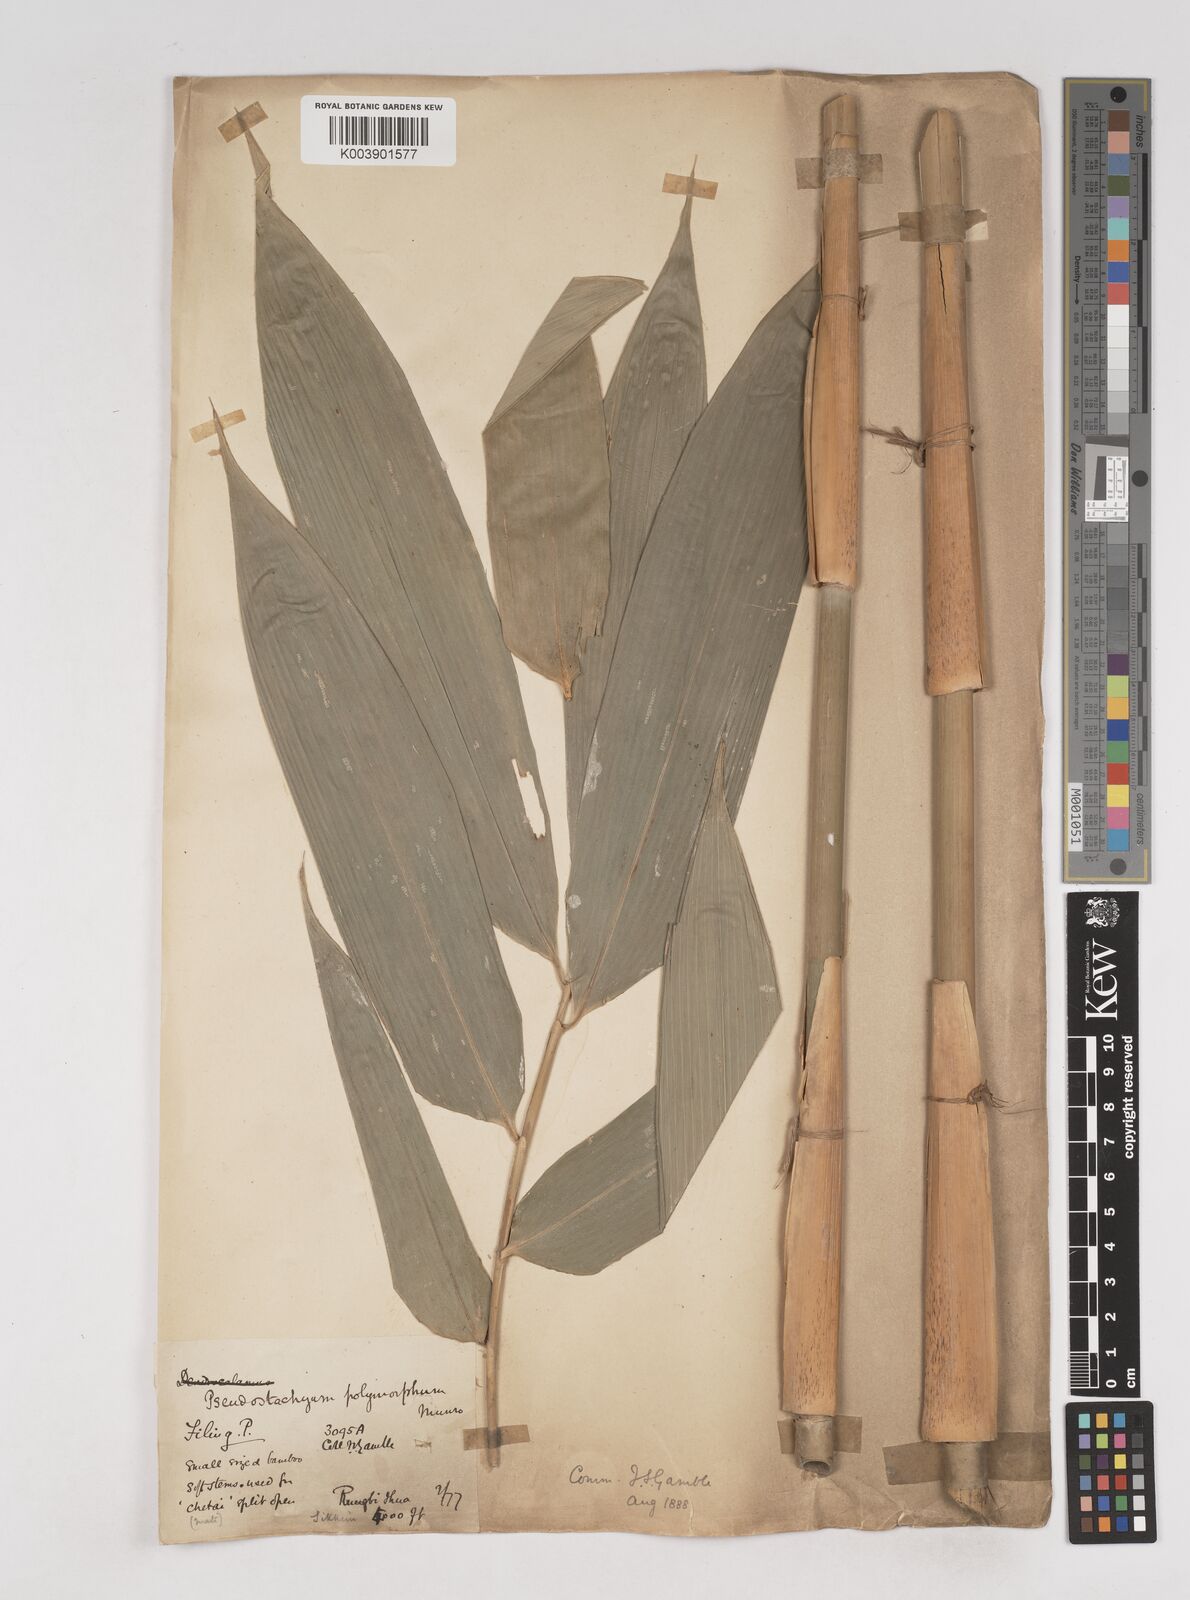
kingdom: Plantae
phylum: Tracheophyta
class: Liliopsida
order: Poales
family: Poaceae
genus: Pseudostachyum
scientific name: Pseudostachyum polymorphum
